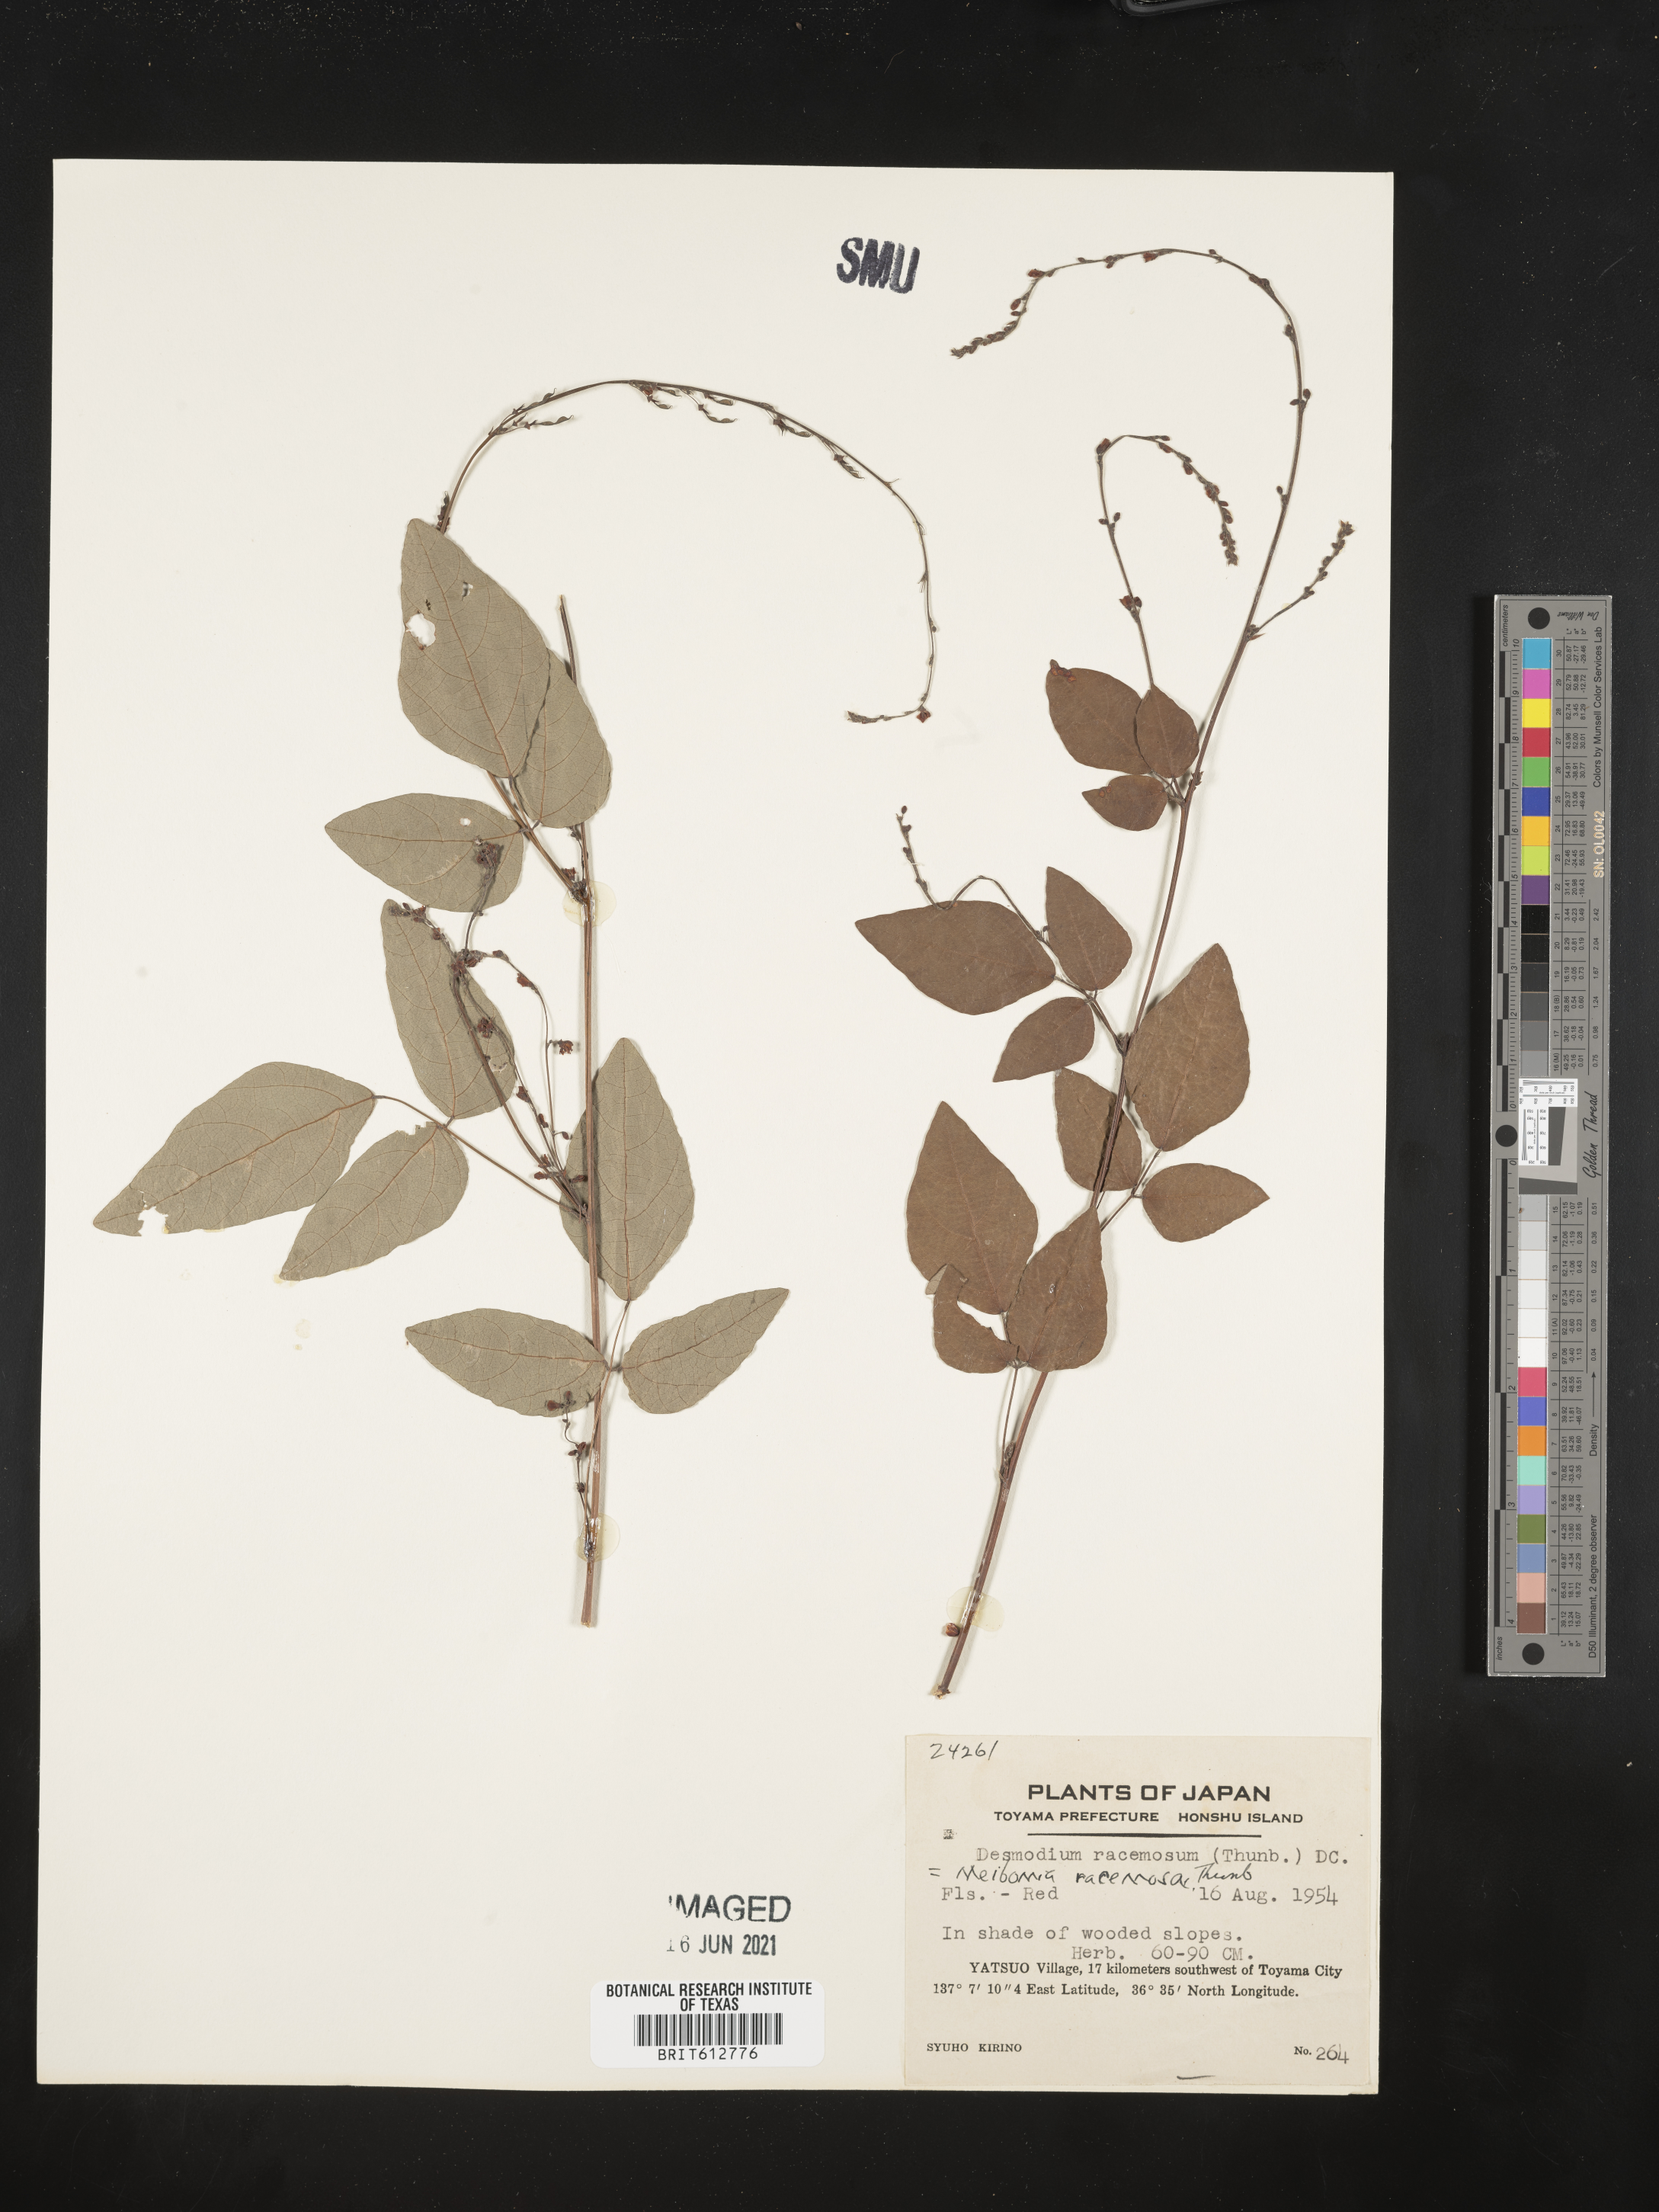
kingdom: Plantae
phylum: Tracheophyta
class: Magnoliopsida
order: Fabales
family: Fabaceae
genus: Hylodesmum
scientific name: Hylodesmum podocarpum
